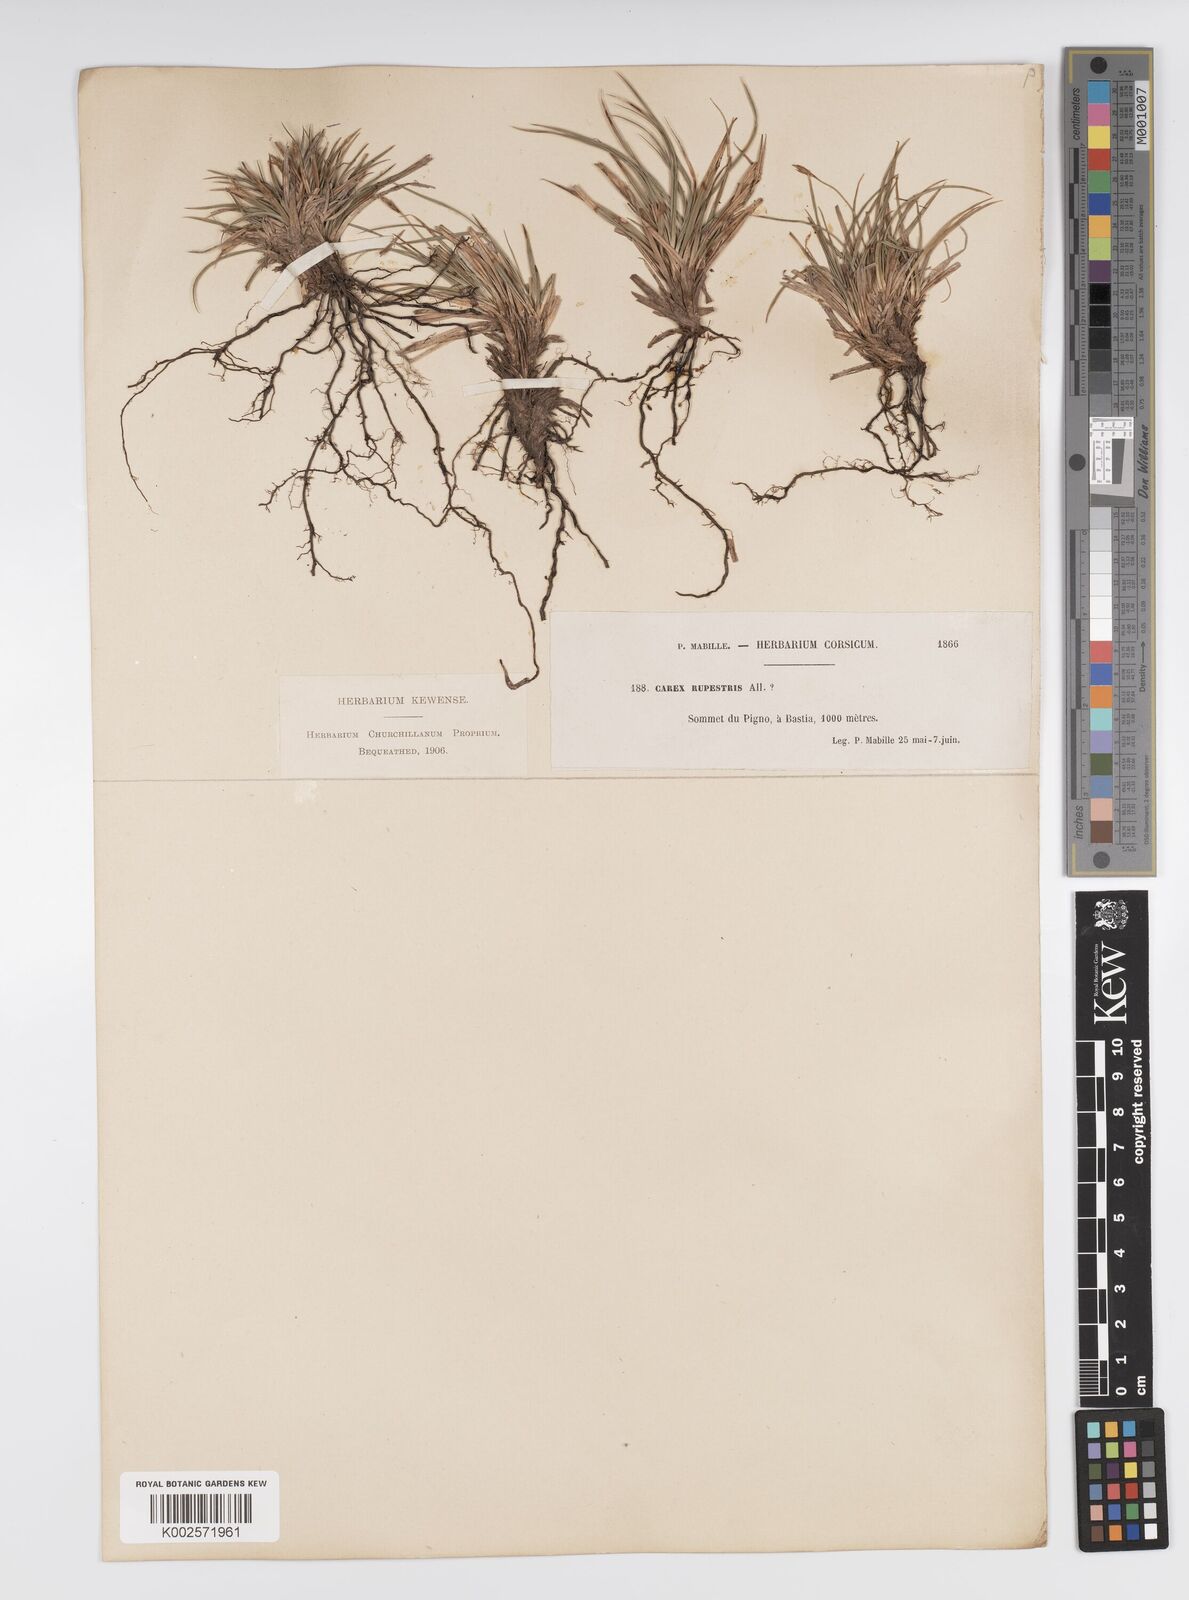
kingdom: Plantae
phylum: Tracheophyta
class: Liliopsida
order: Poales
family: Cyperaceae
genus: Carex
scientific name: Carex halleriana
